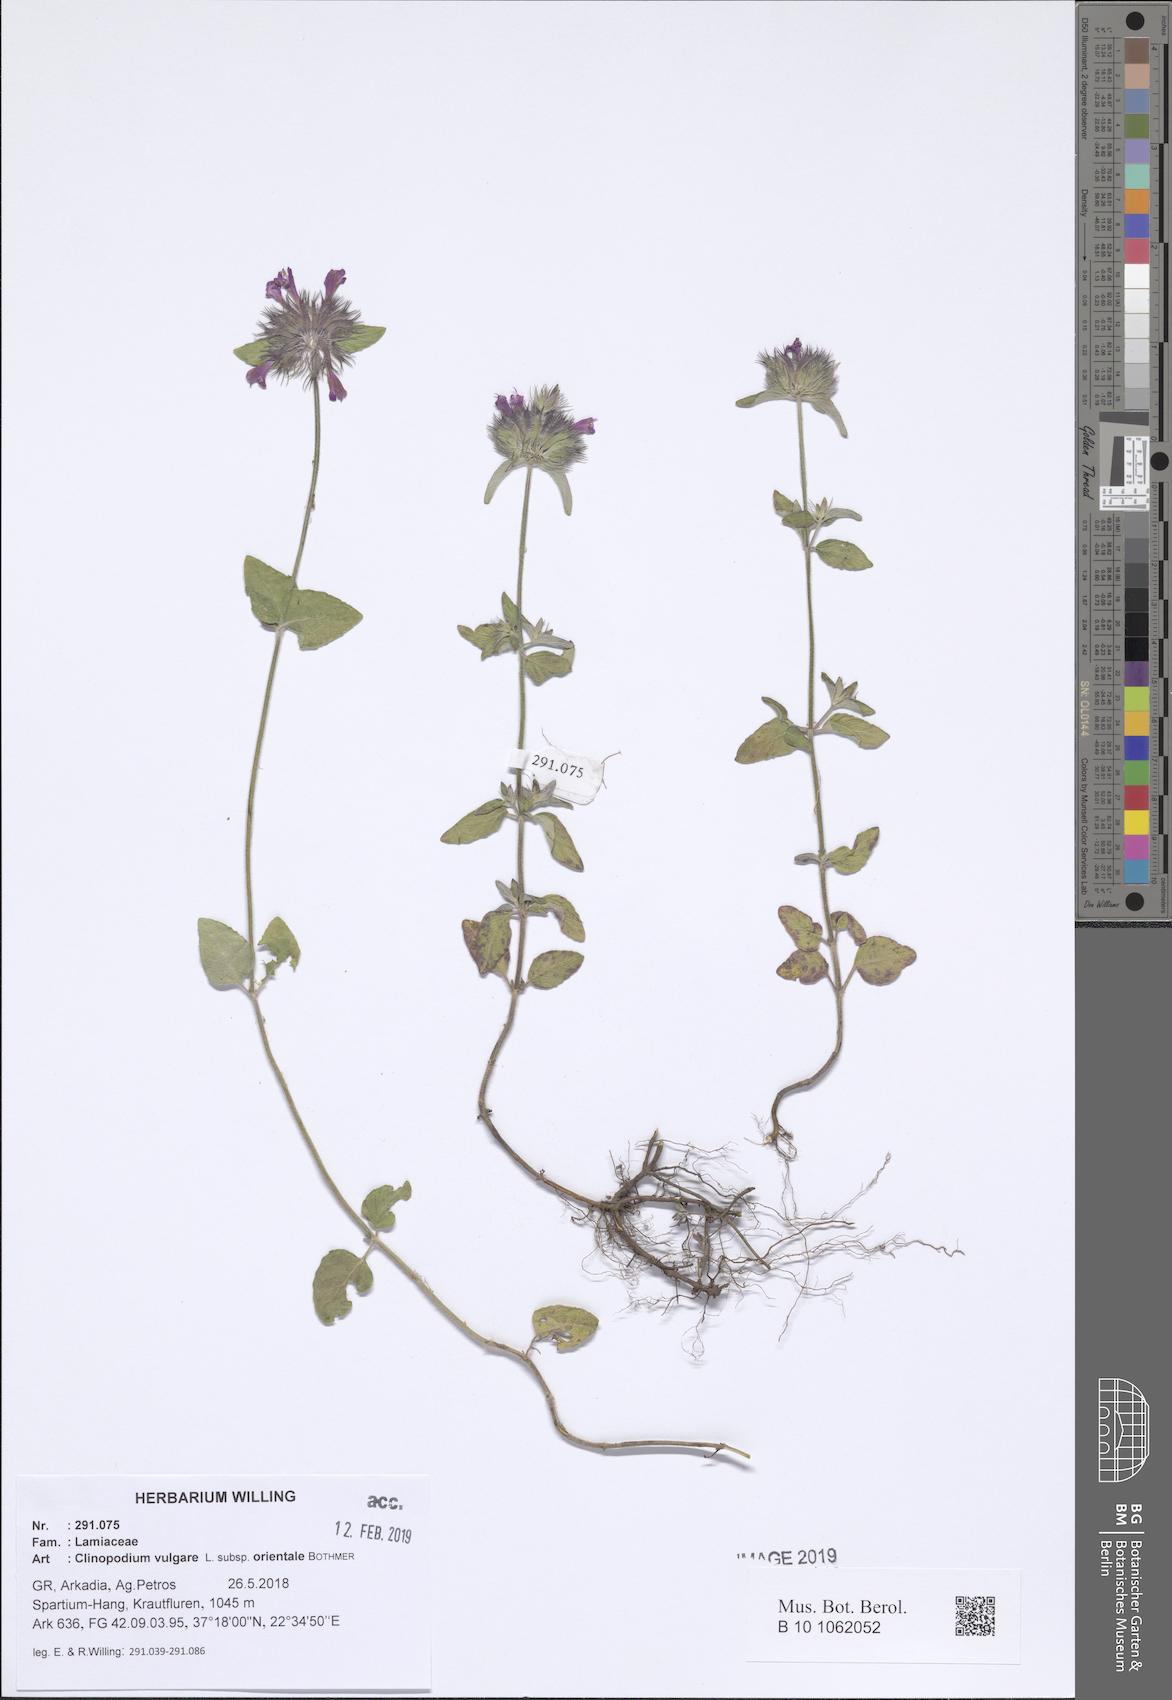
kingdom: Plantae
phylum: Tracheophyta
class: Magnoliopsida
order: Lamiales
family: Lamiaceae
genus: Clinopodium
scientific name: Clinopodium vulgare
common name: Wild basil
